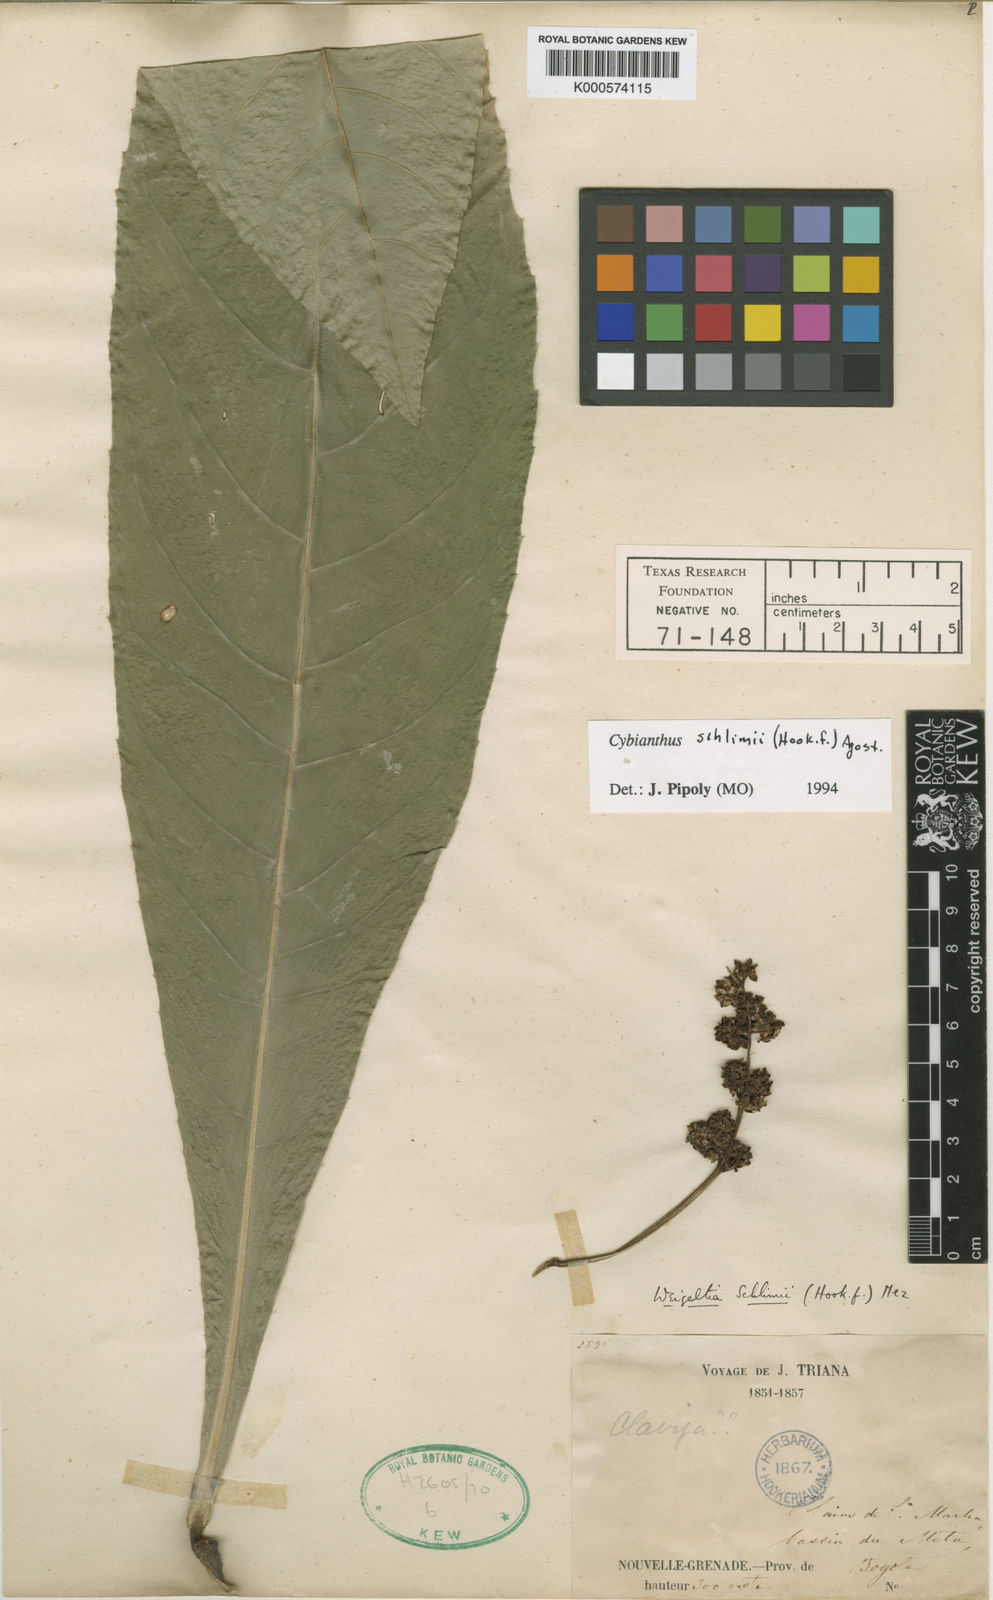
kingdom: Plantae
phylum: Tracheophyta
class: Magnoliopsida
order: Ericales
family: Primulaceae
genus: Cybianthus
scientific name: Cybianthus schlimii
